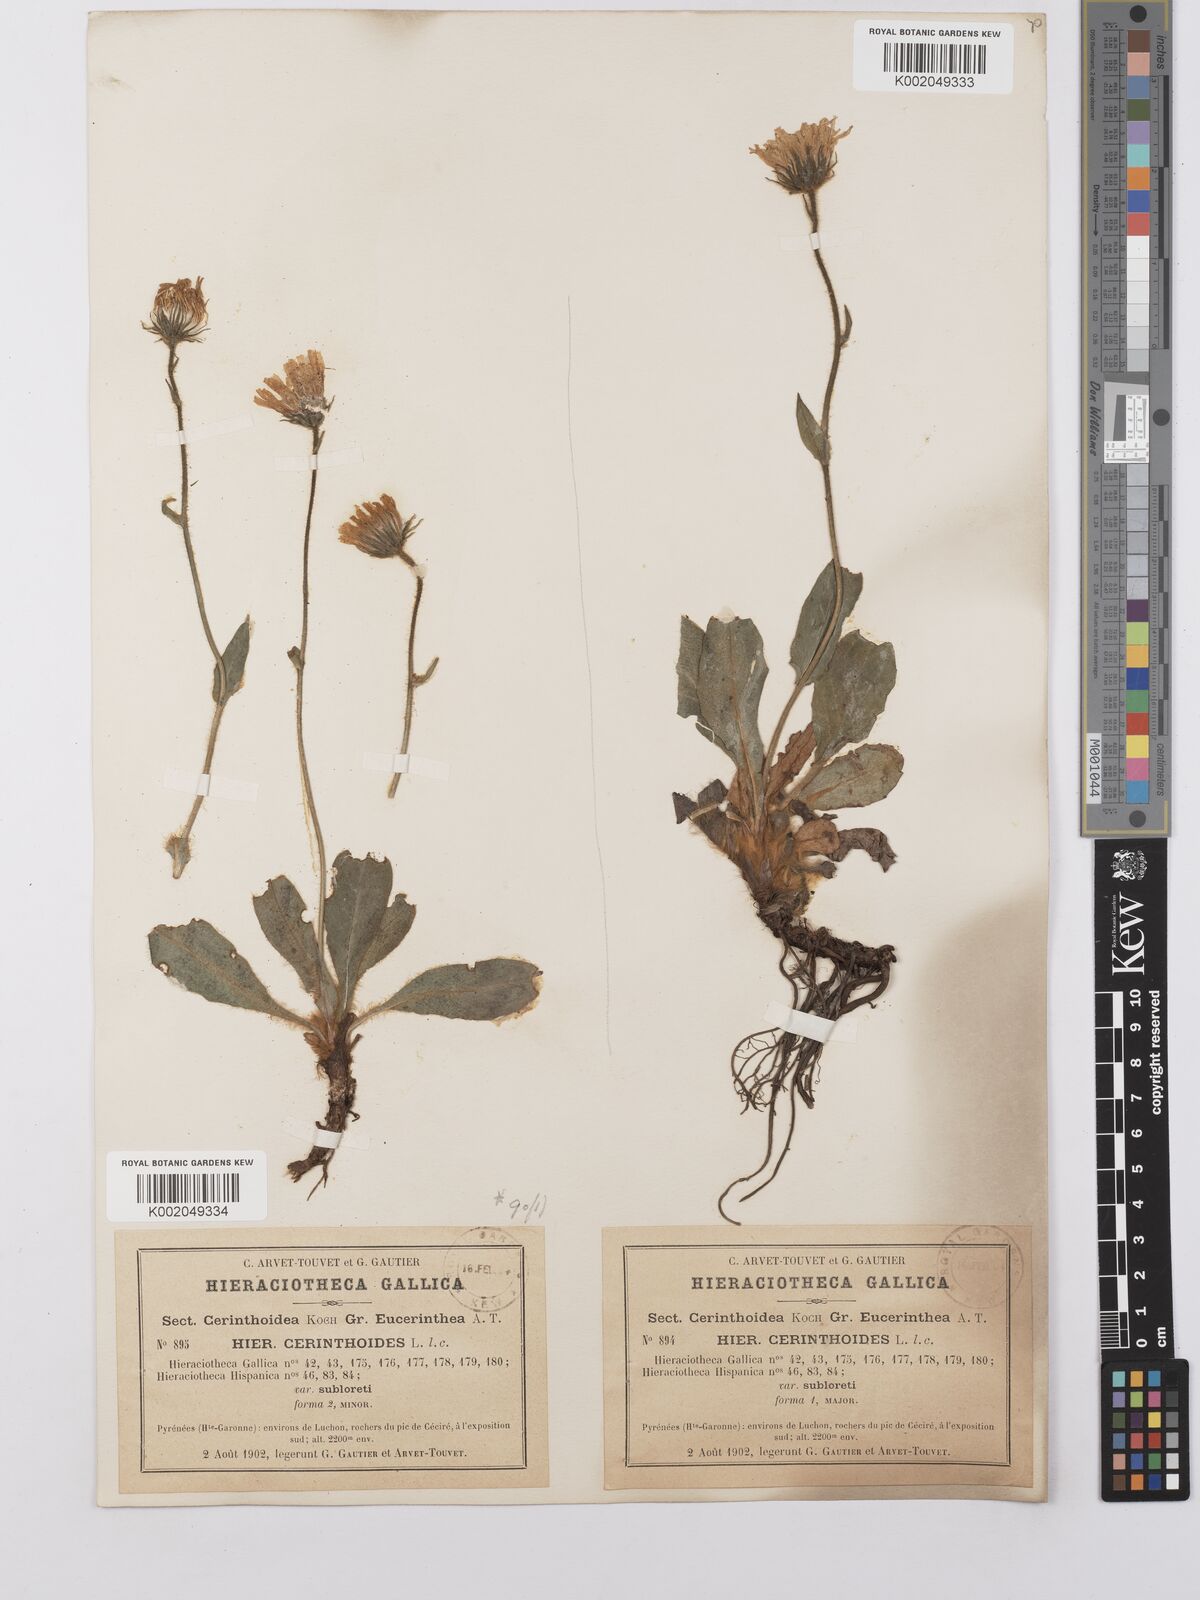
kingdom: Plantae
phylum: Tracheophyta
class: Magnoliopsida
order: Asterales
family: Asteraceae
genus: Hieracium
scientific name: Hieracium cerinthoides
